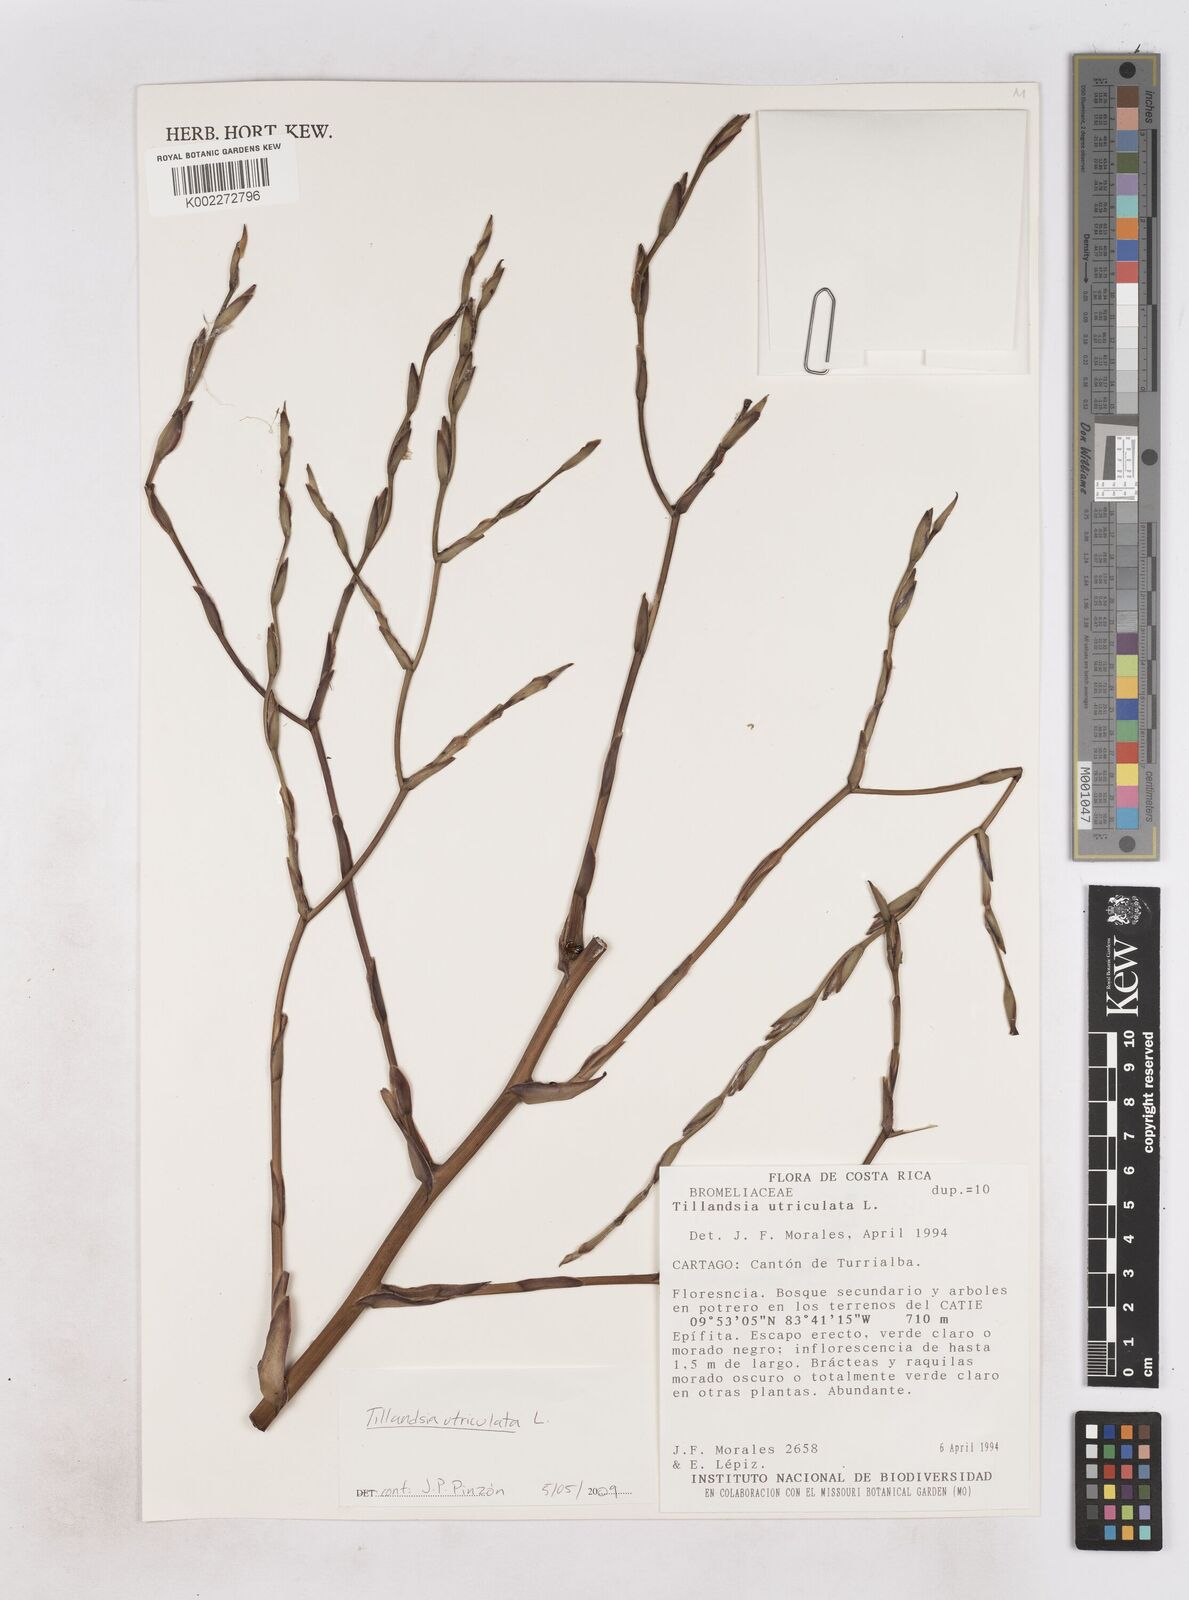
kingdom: Plantae
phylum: Tracheophyta
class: Liliopsida
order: Poales
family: Bromeliaceae
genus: Tillandsia
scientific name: Tillandsia utriculata
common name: Wild pine
